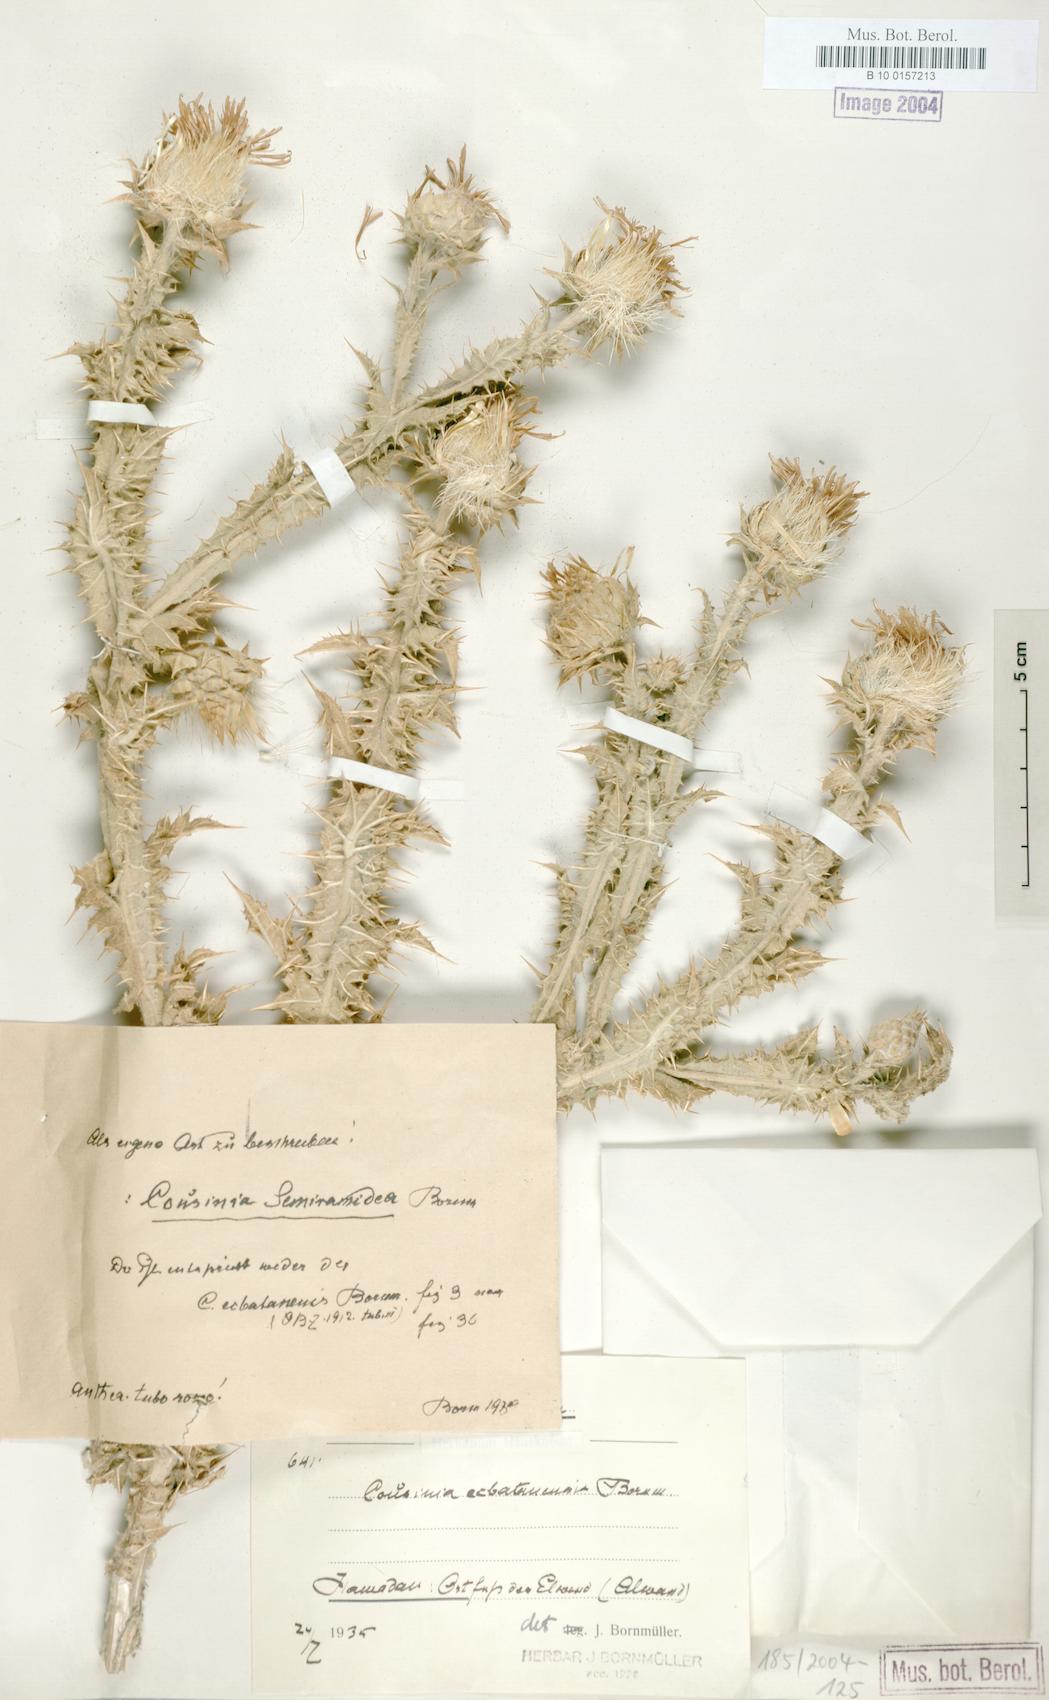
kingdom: Plantae
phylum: Tracheophyta
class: Magnoliopsida
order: Asterales
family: Asteraceae
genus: Cousinia
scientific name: Cousinia
